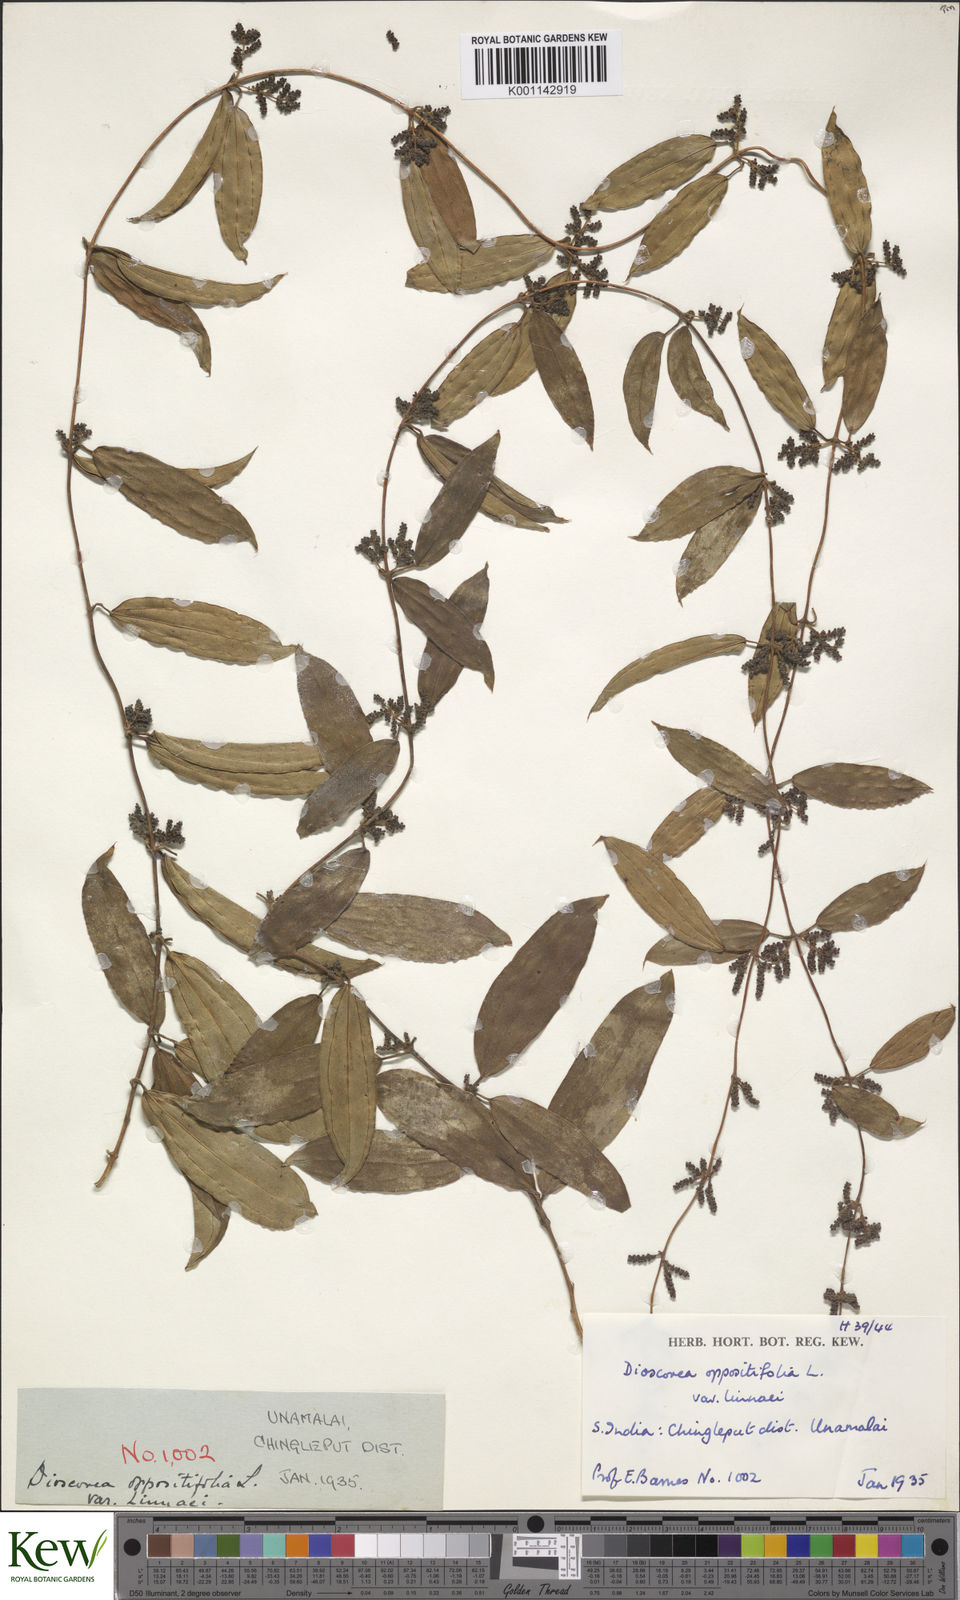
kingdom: Plantae
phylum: Tracheophyta
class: Liliopsida
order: Dioscoreales
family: Dioscoreaceae
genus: Dioscorea
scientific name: Dioscorea oppositifolia
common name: Chinese yam
